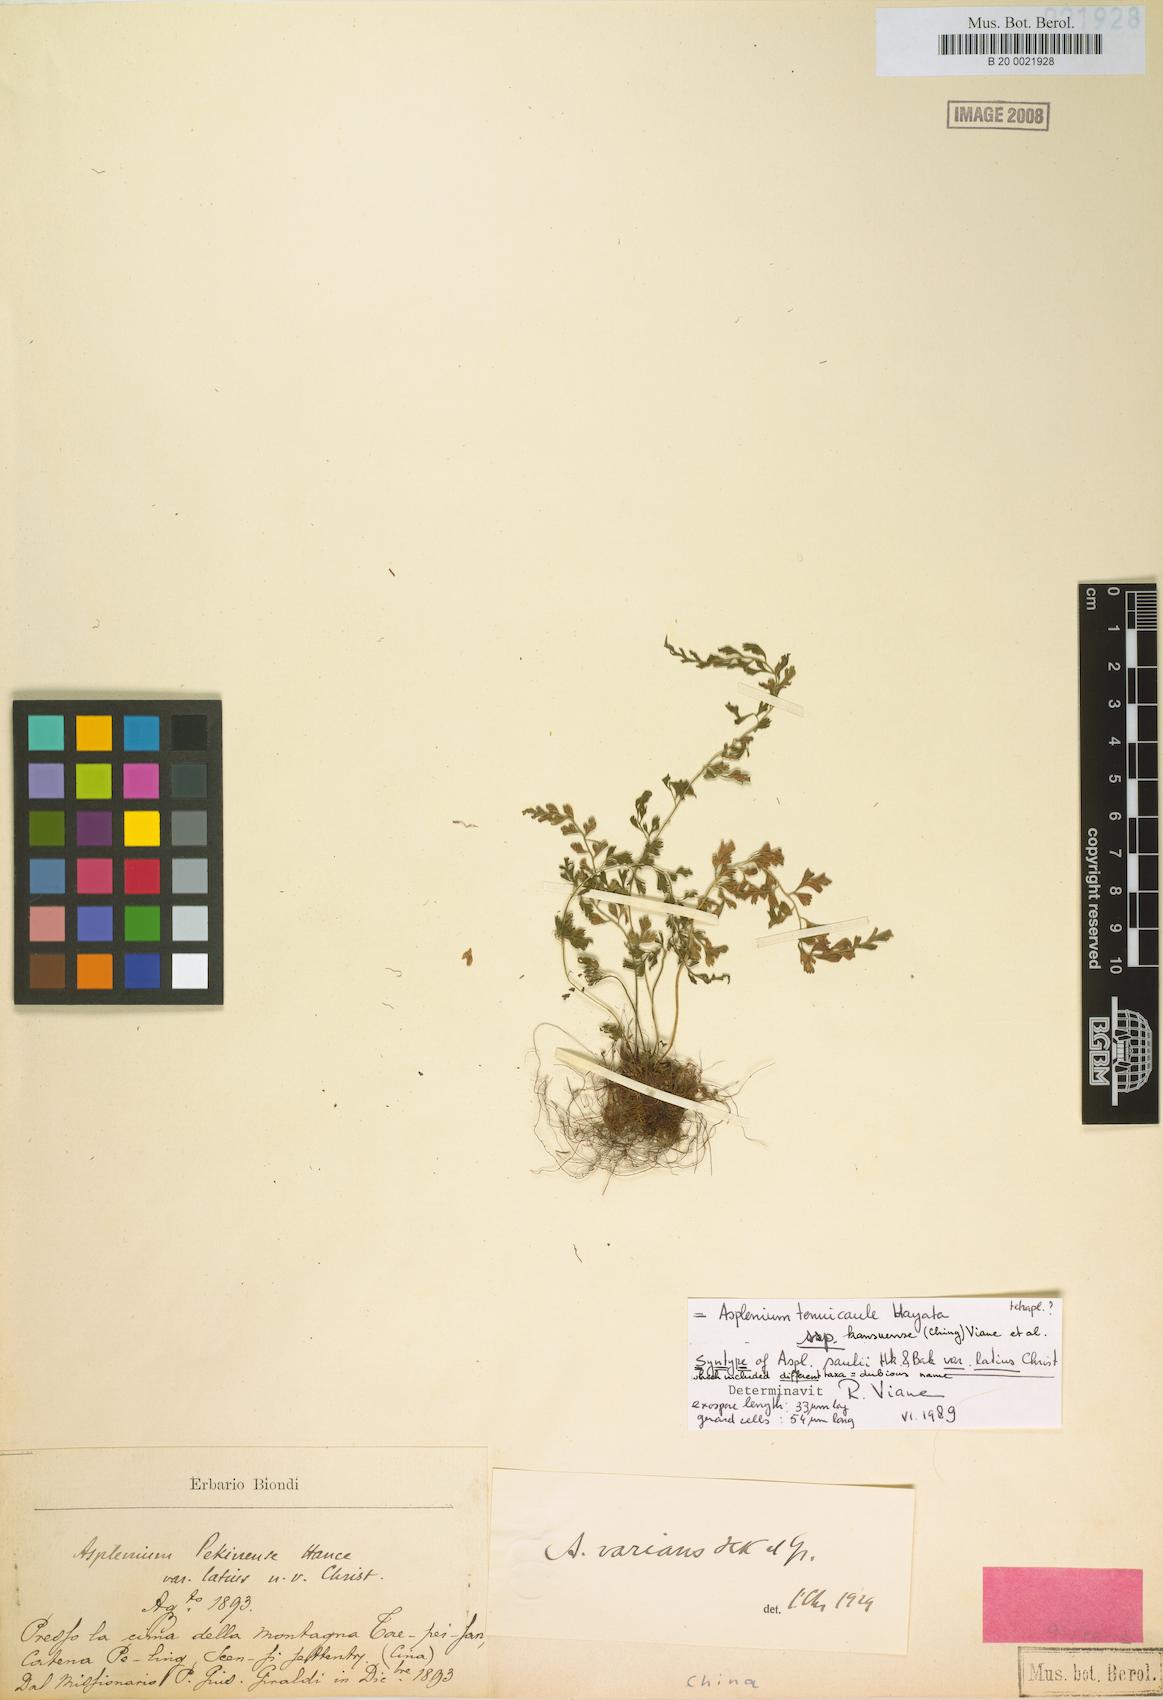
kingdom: Plantae
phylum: Tracheophyta
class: Polypodiopsida
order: Polypodiales
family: Aspleniaceae
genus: Asplenium
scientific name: Asplenium laciniatum
